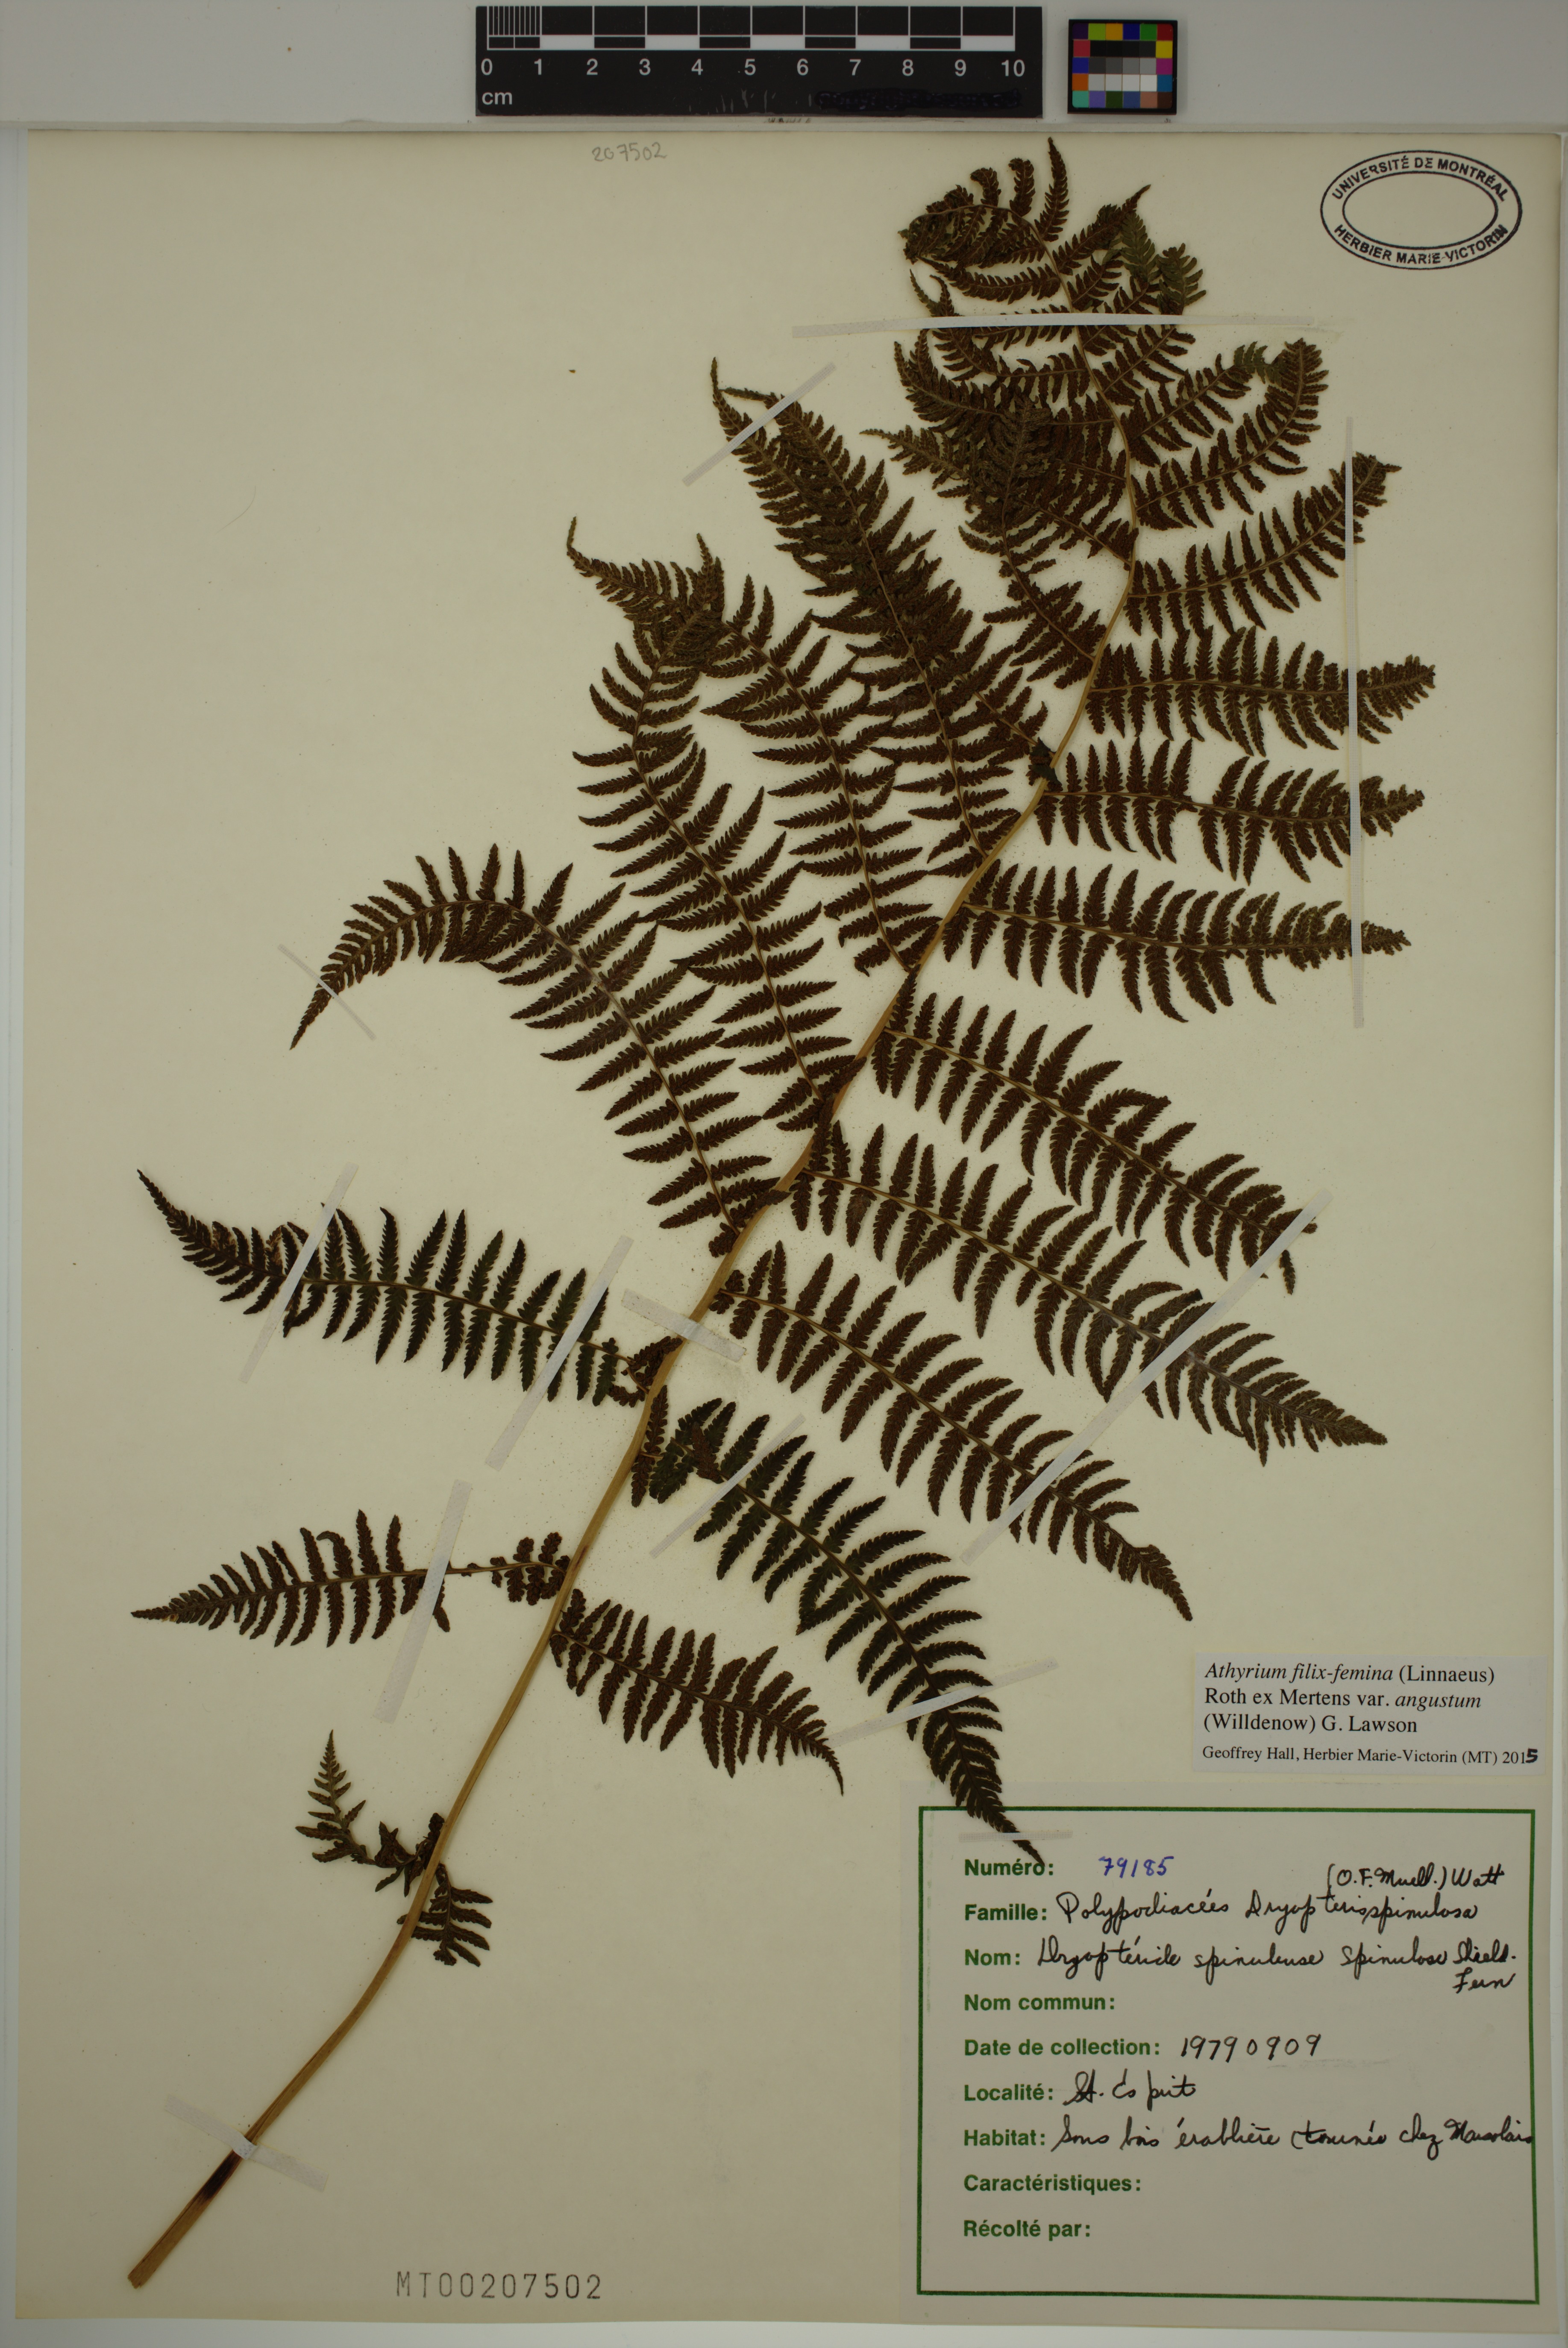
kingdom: Plantae
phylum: Tracheophyta
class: Polypodiopsida
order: Polypodiales
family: Athyriaceae
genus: Athyrium
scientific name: Athyrium angustum
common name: Northern lady fern
